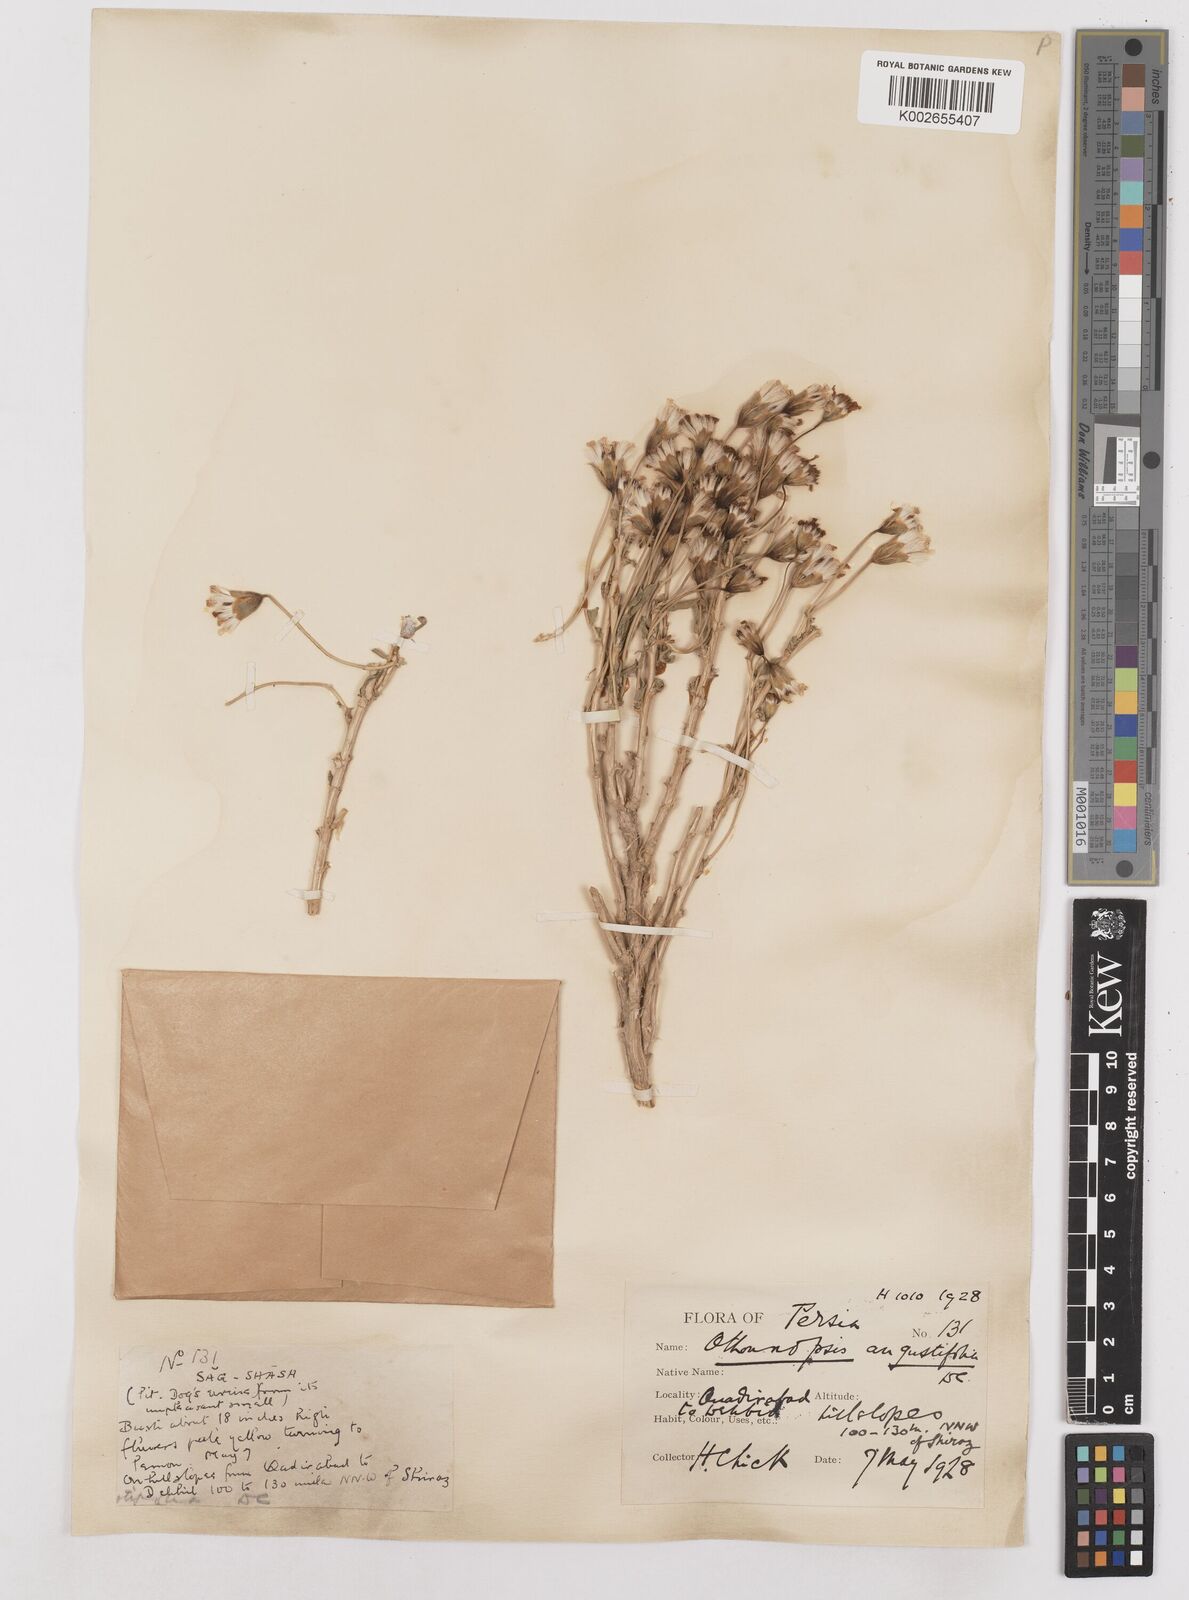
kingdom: Plantae
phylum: Tracheophyta
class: Magnoliopsida
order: Asterales
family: Asteraceae
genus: Hertia
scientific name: Hertia angustifolia
